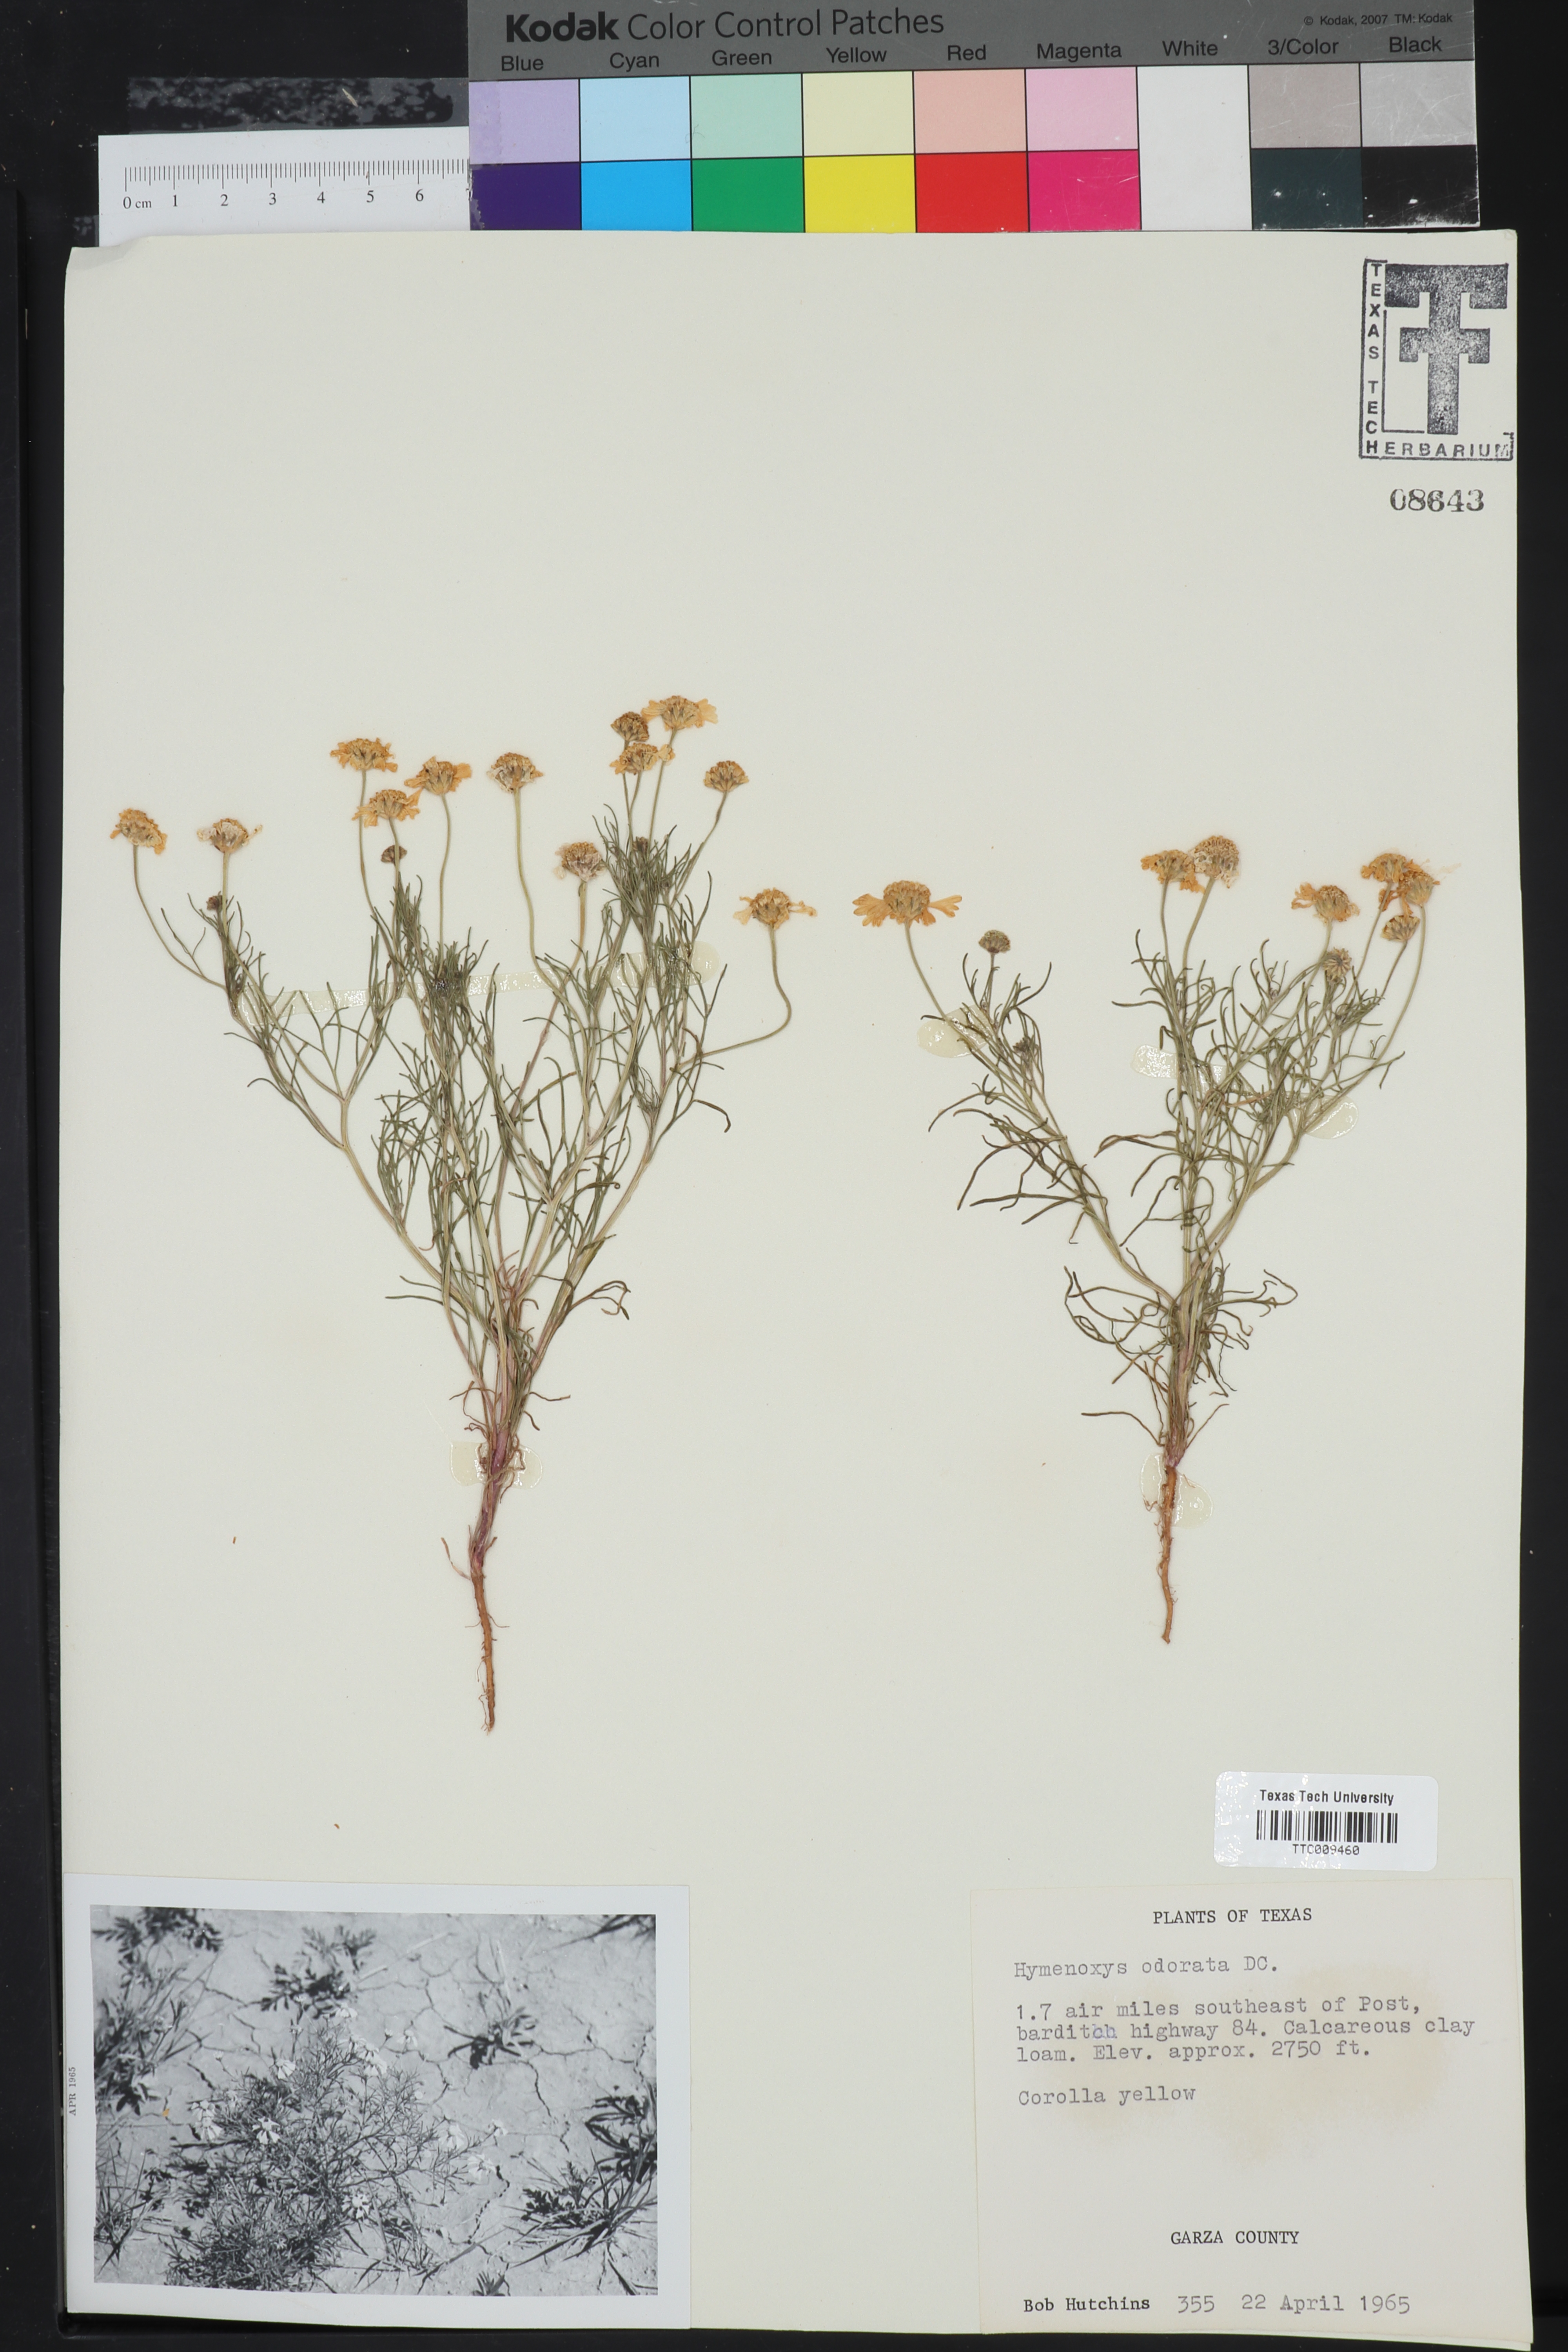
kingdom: Plantae
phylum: Tracheophyta
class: Magnoliopsida
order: Asterales
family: Asteraceae
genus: Hymenoxys
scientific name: Hymenoxys odorata
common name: Bitter rubberweed
